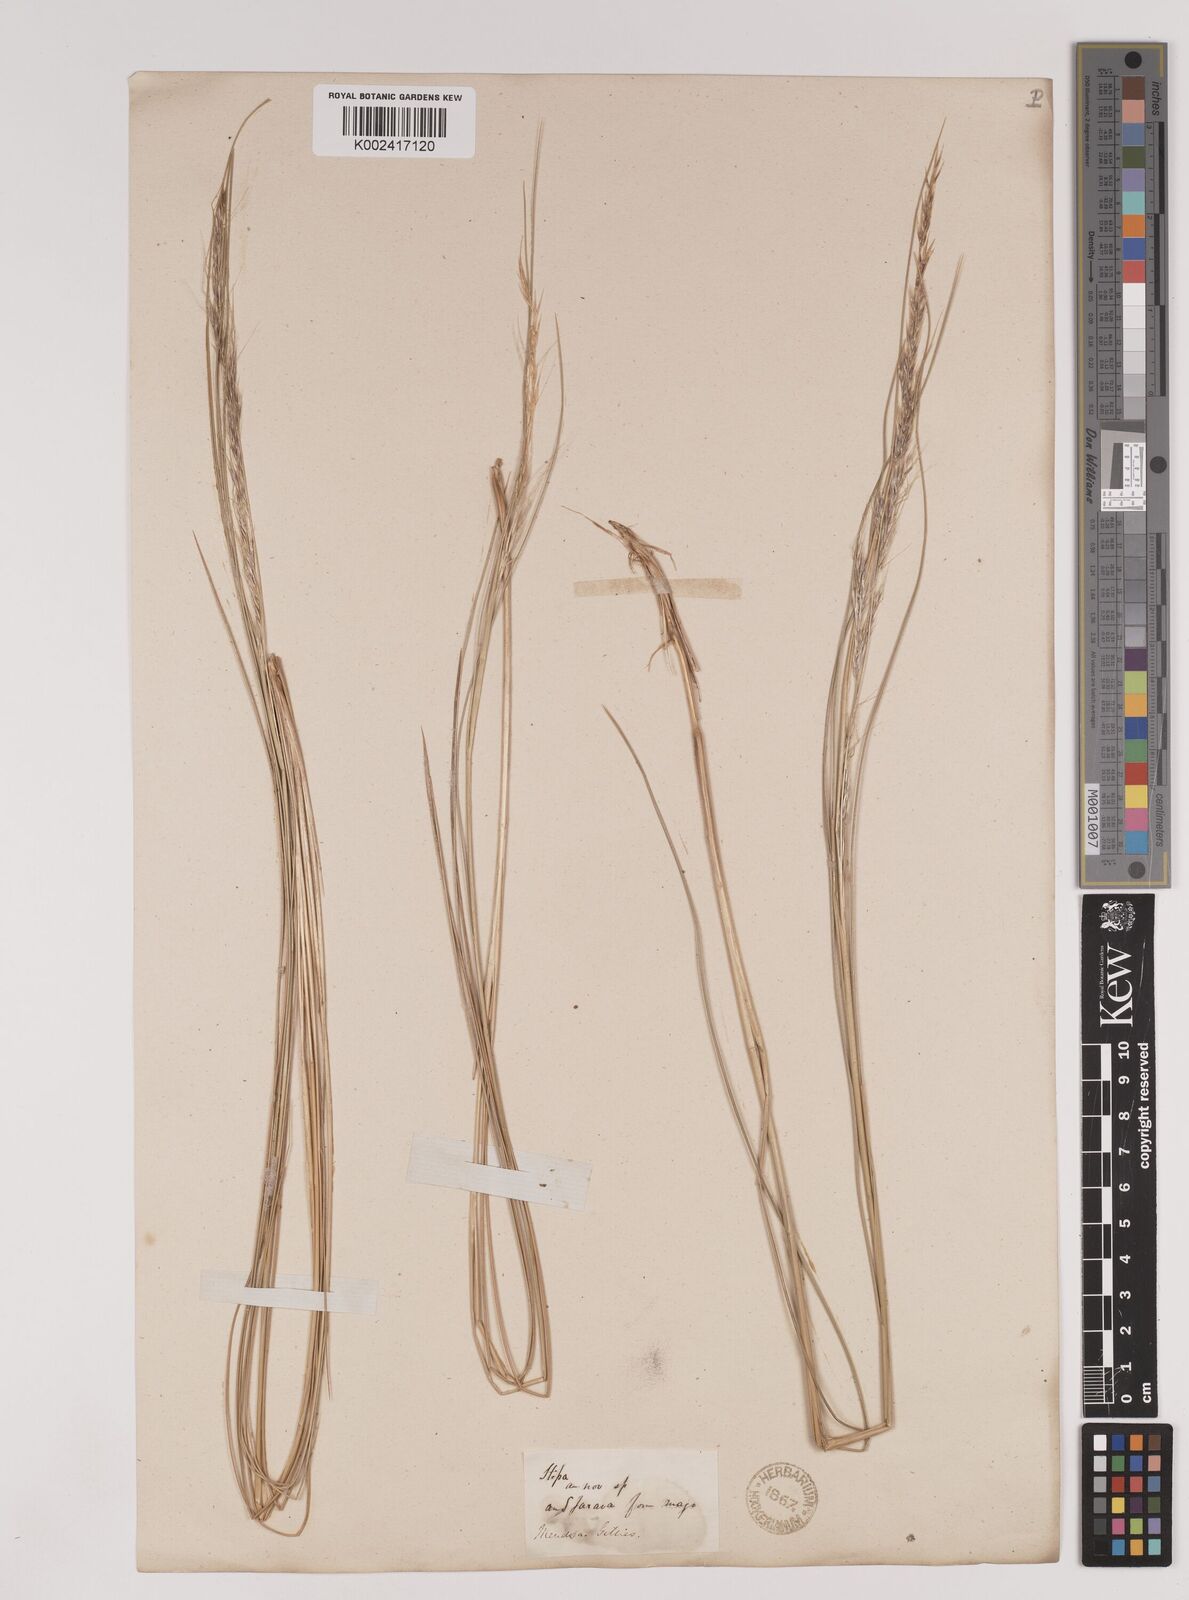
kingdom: Plantae
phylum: Tracheophyta
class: Liliopsida
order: Poales
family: Poaceae
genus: Stipa
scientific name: Stipa
